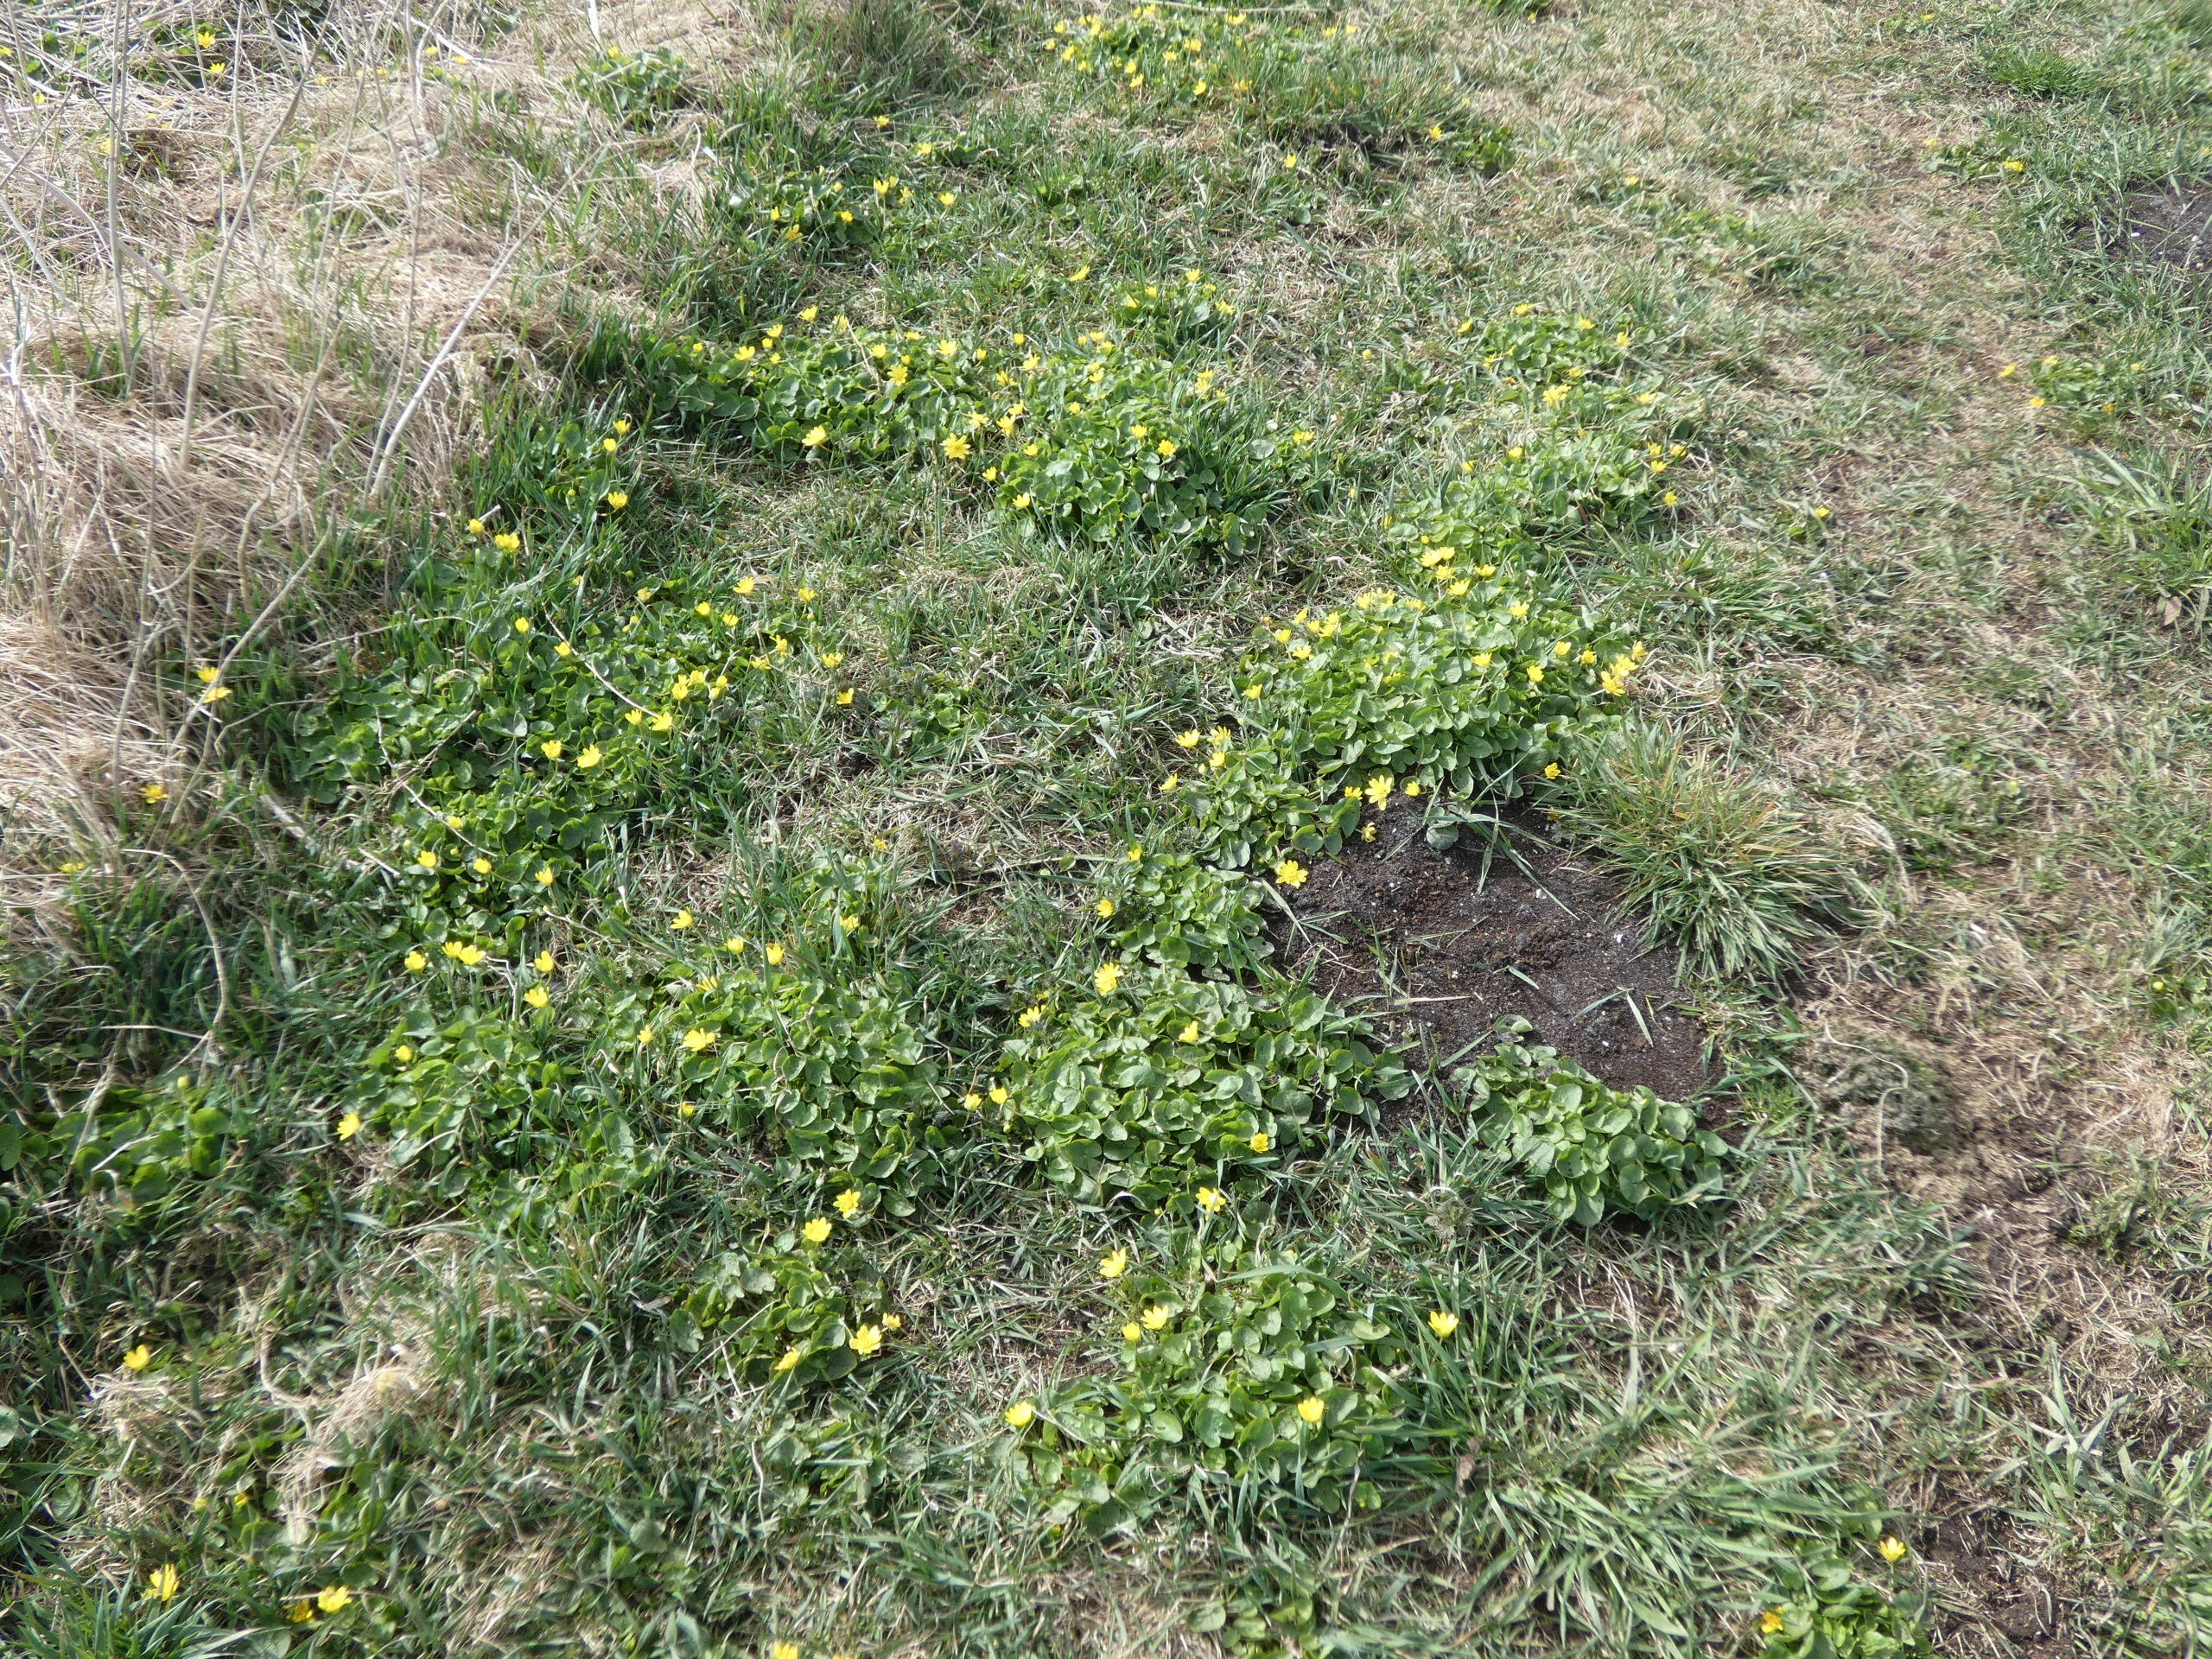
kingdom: Plantae
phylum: Tracheophyta
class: Magnoliopsida
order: Ranunculales
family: Ranunculaceae
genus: Ficaria
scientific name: Ficaria verna
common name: Vorterod
